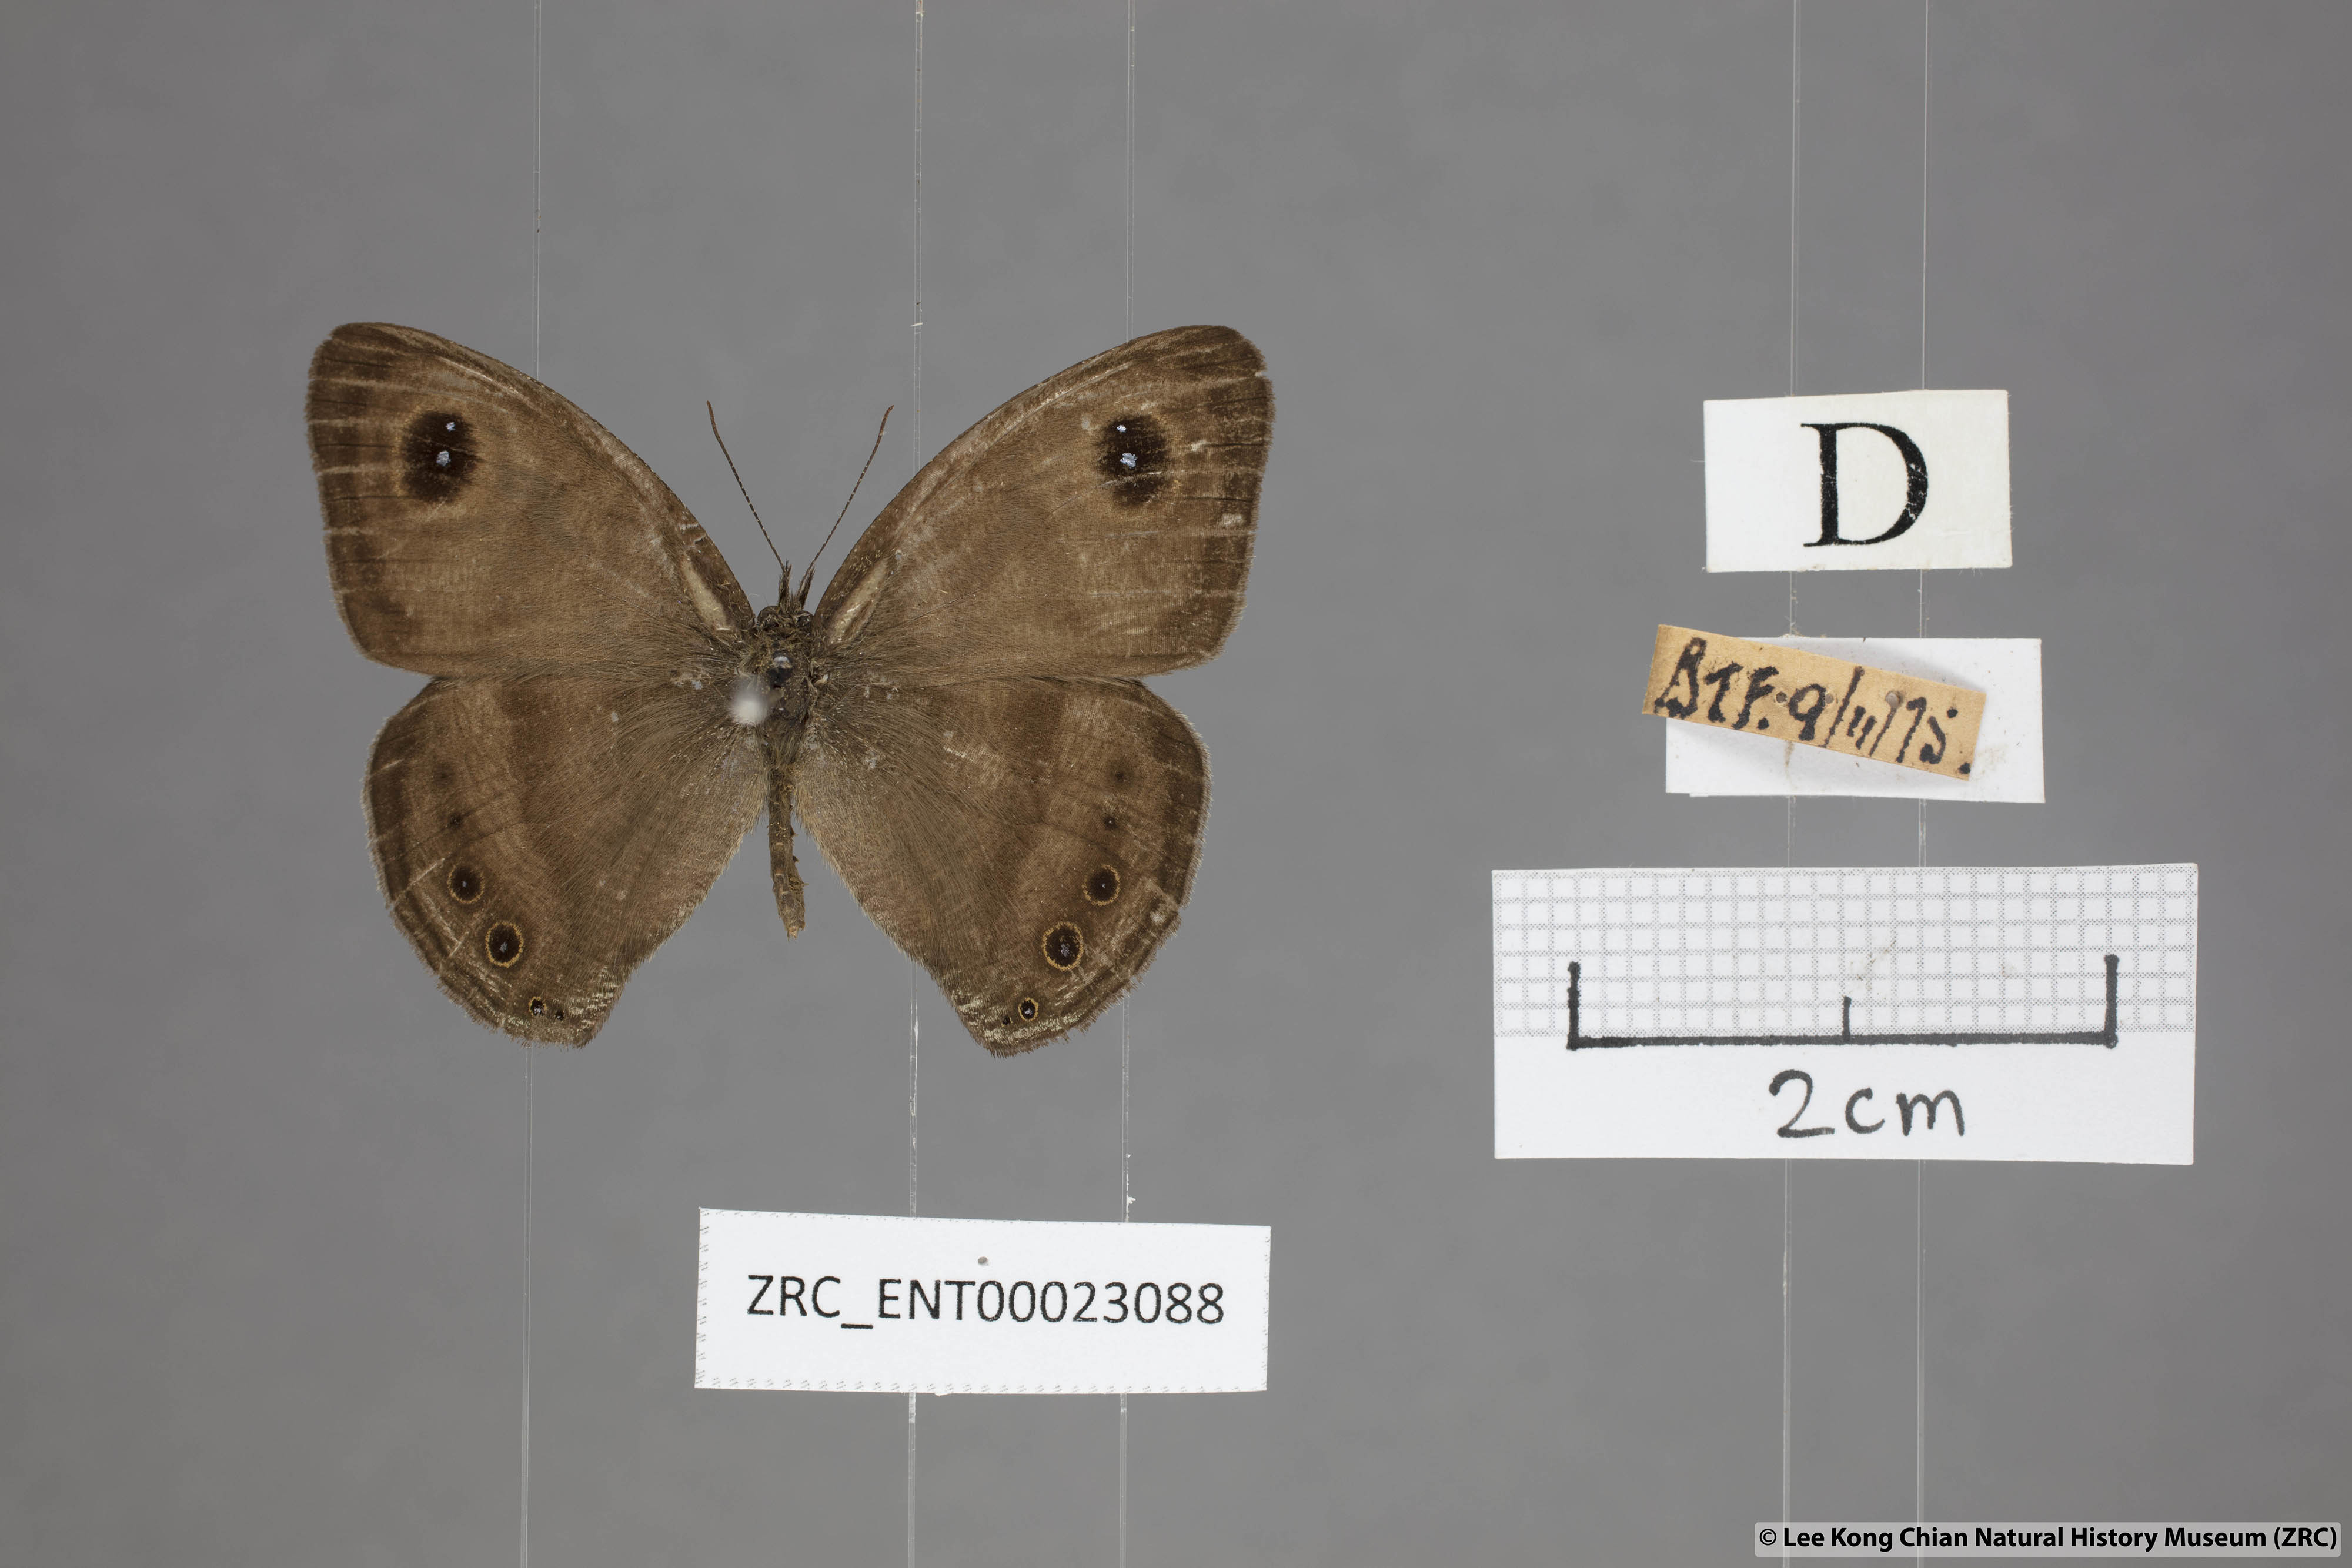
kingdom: Animalia
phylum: Arthropoda
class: Insecta
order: Lepidoptera
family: Nymphalidae
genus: Ypthima
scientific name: Ypthima fasciata
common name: Malayan six-ring
